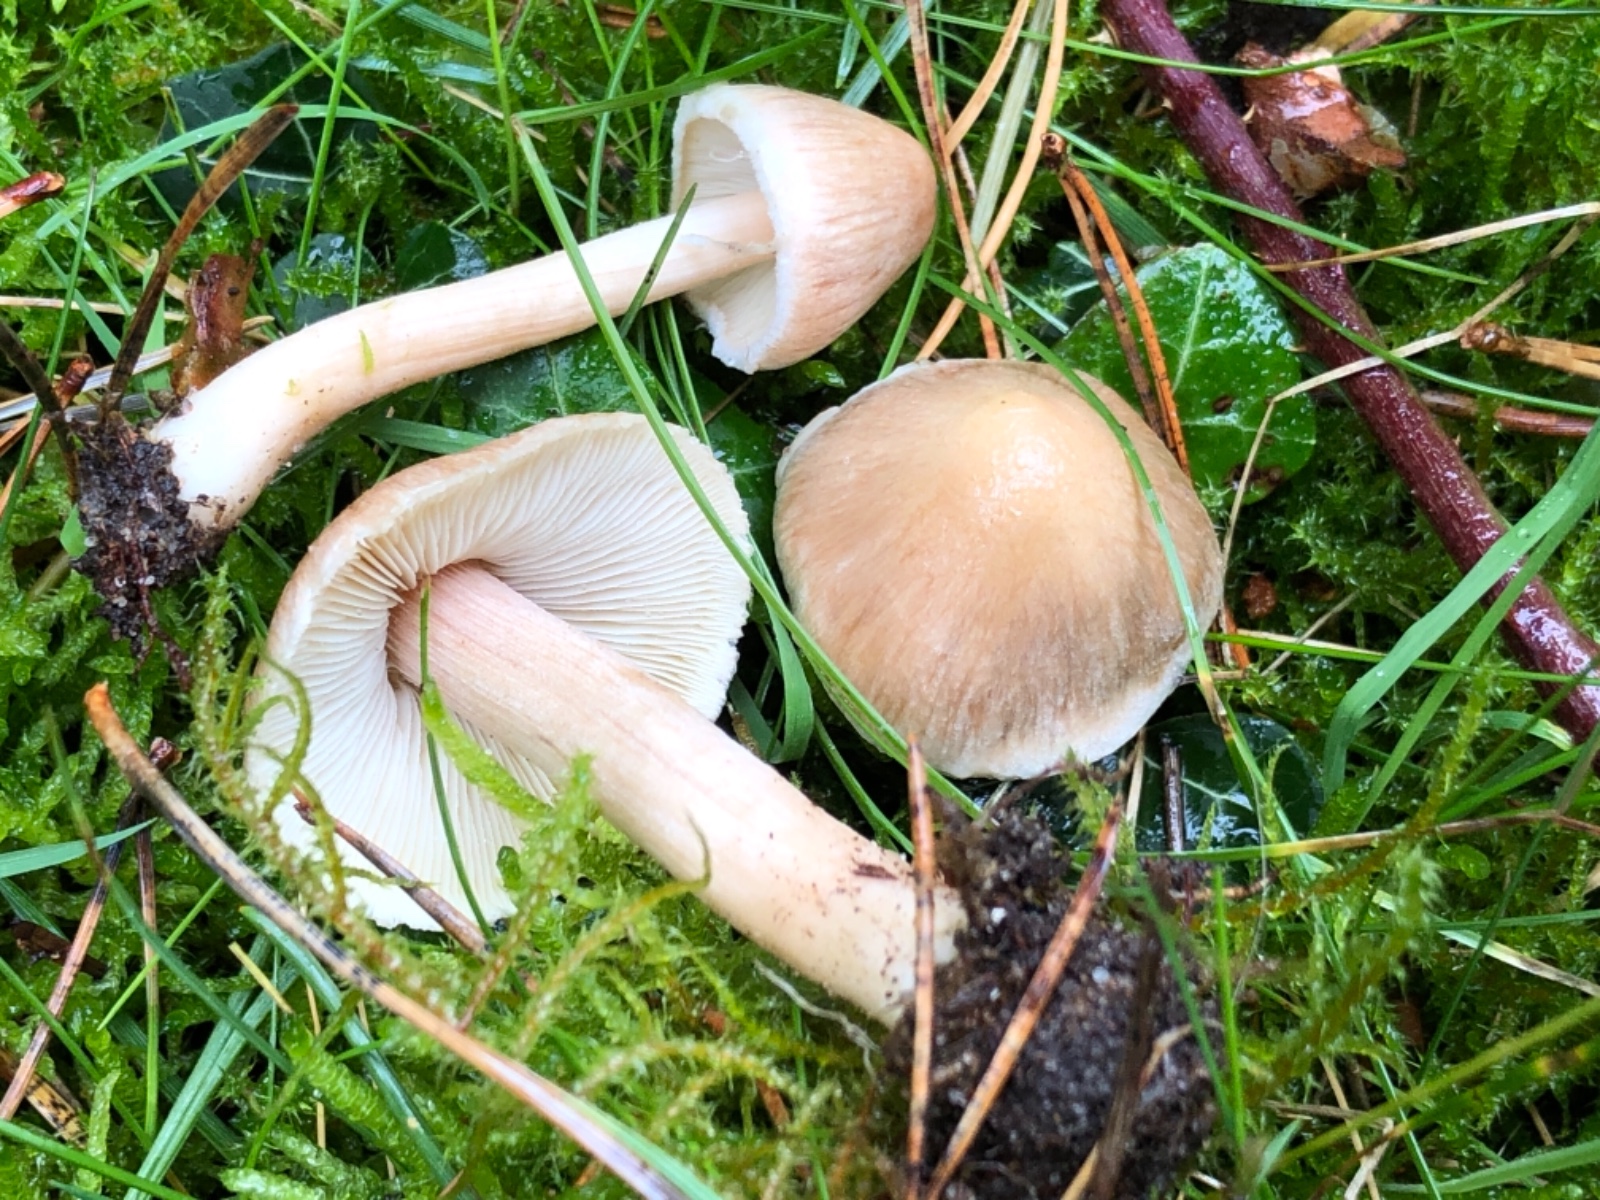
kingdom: Fungi
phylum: Basidiomycota
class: Agaricomycetes
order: Agaricales
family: Inocybaceae
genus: Inocybe
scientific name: Inocybe sindonia
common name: bleg trævlhat
